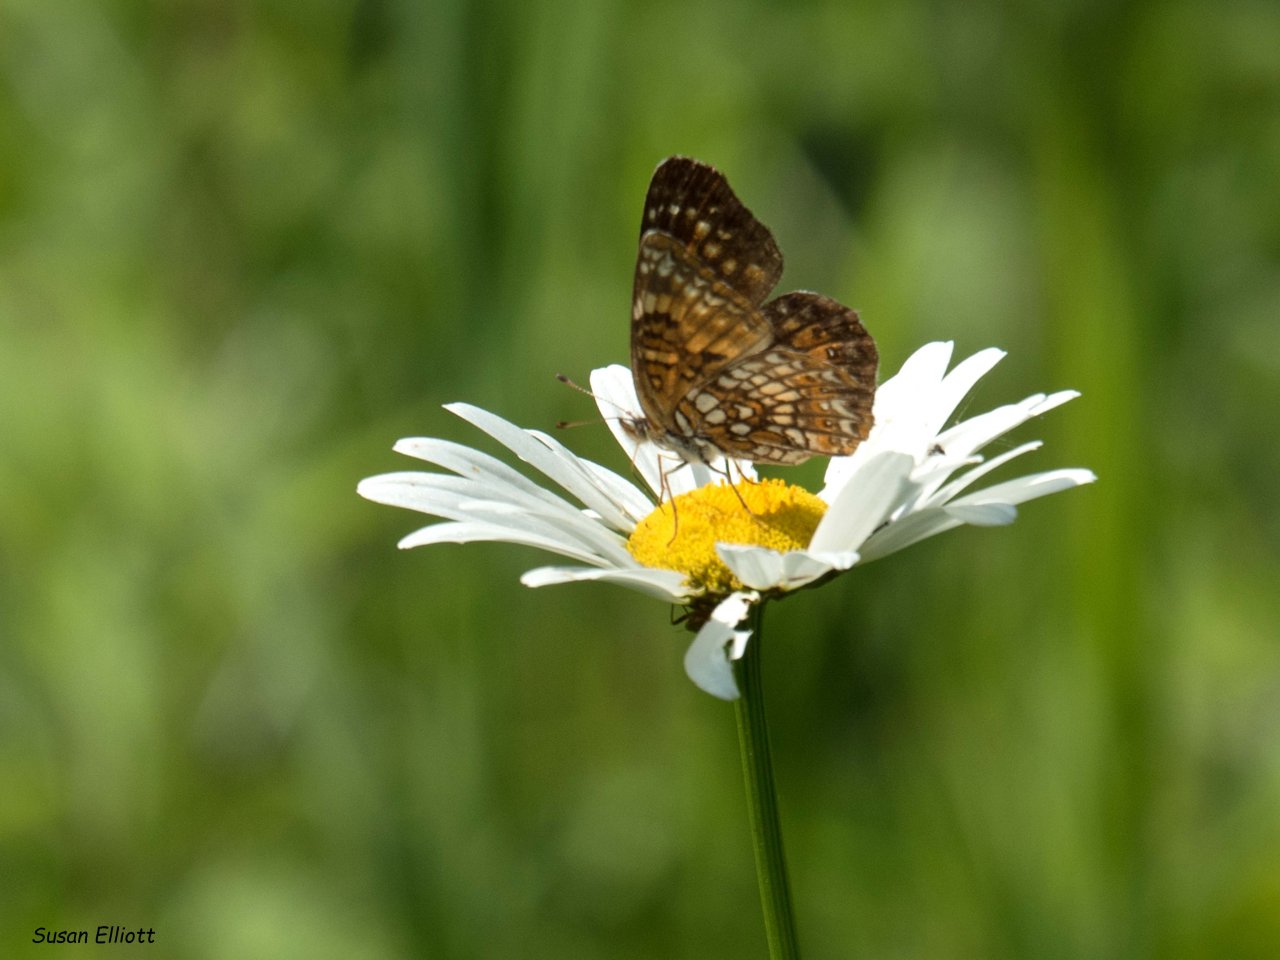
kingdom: Animalia
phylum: Arthropoda
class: Insecta
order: Lepidoptera
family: Nymphalidae
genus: Chlosyne
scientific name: Chlosyne harrisii
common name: Harris's Checkerspot
